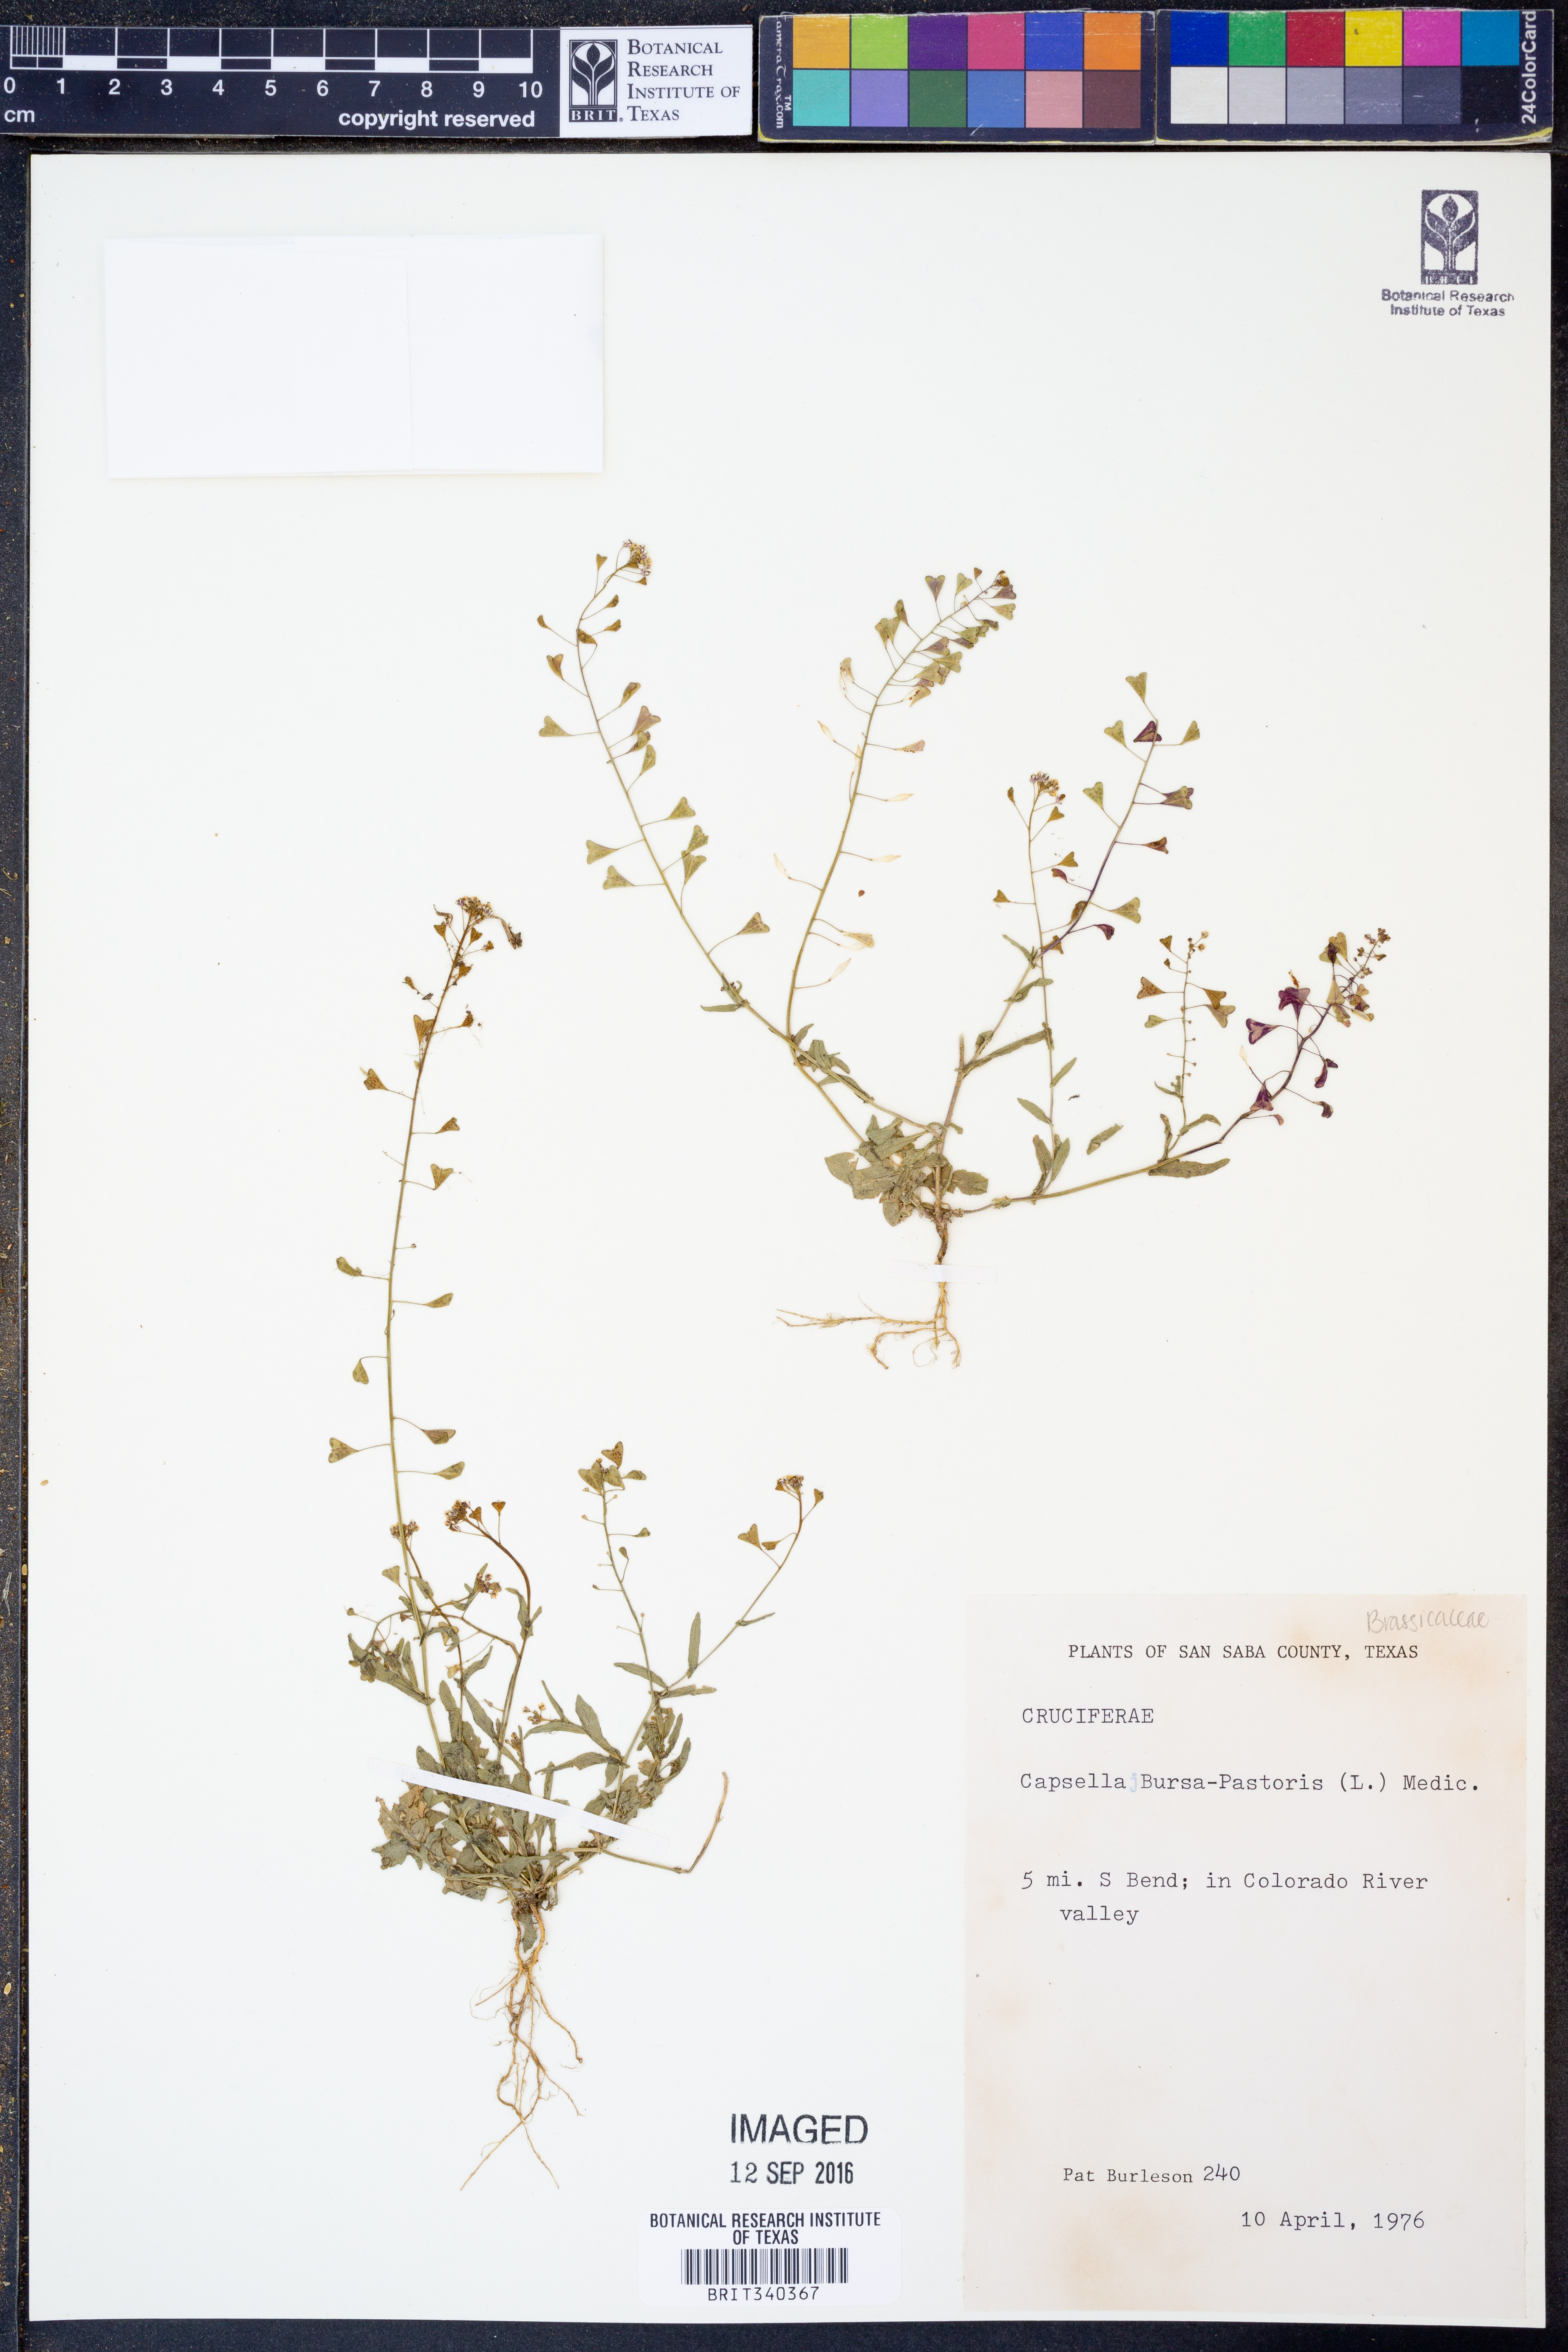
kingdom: Plantae
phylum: Tracheophyta
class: Magnoliopsida
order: Brassicales
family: Brassicaceae
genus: Capsella
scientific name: Capsella bursa-pastoris
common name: Shepherd's purse
